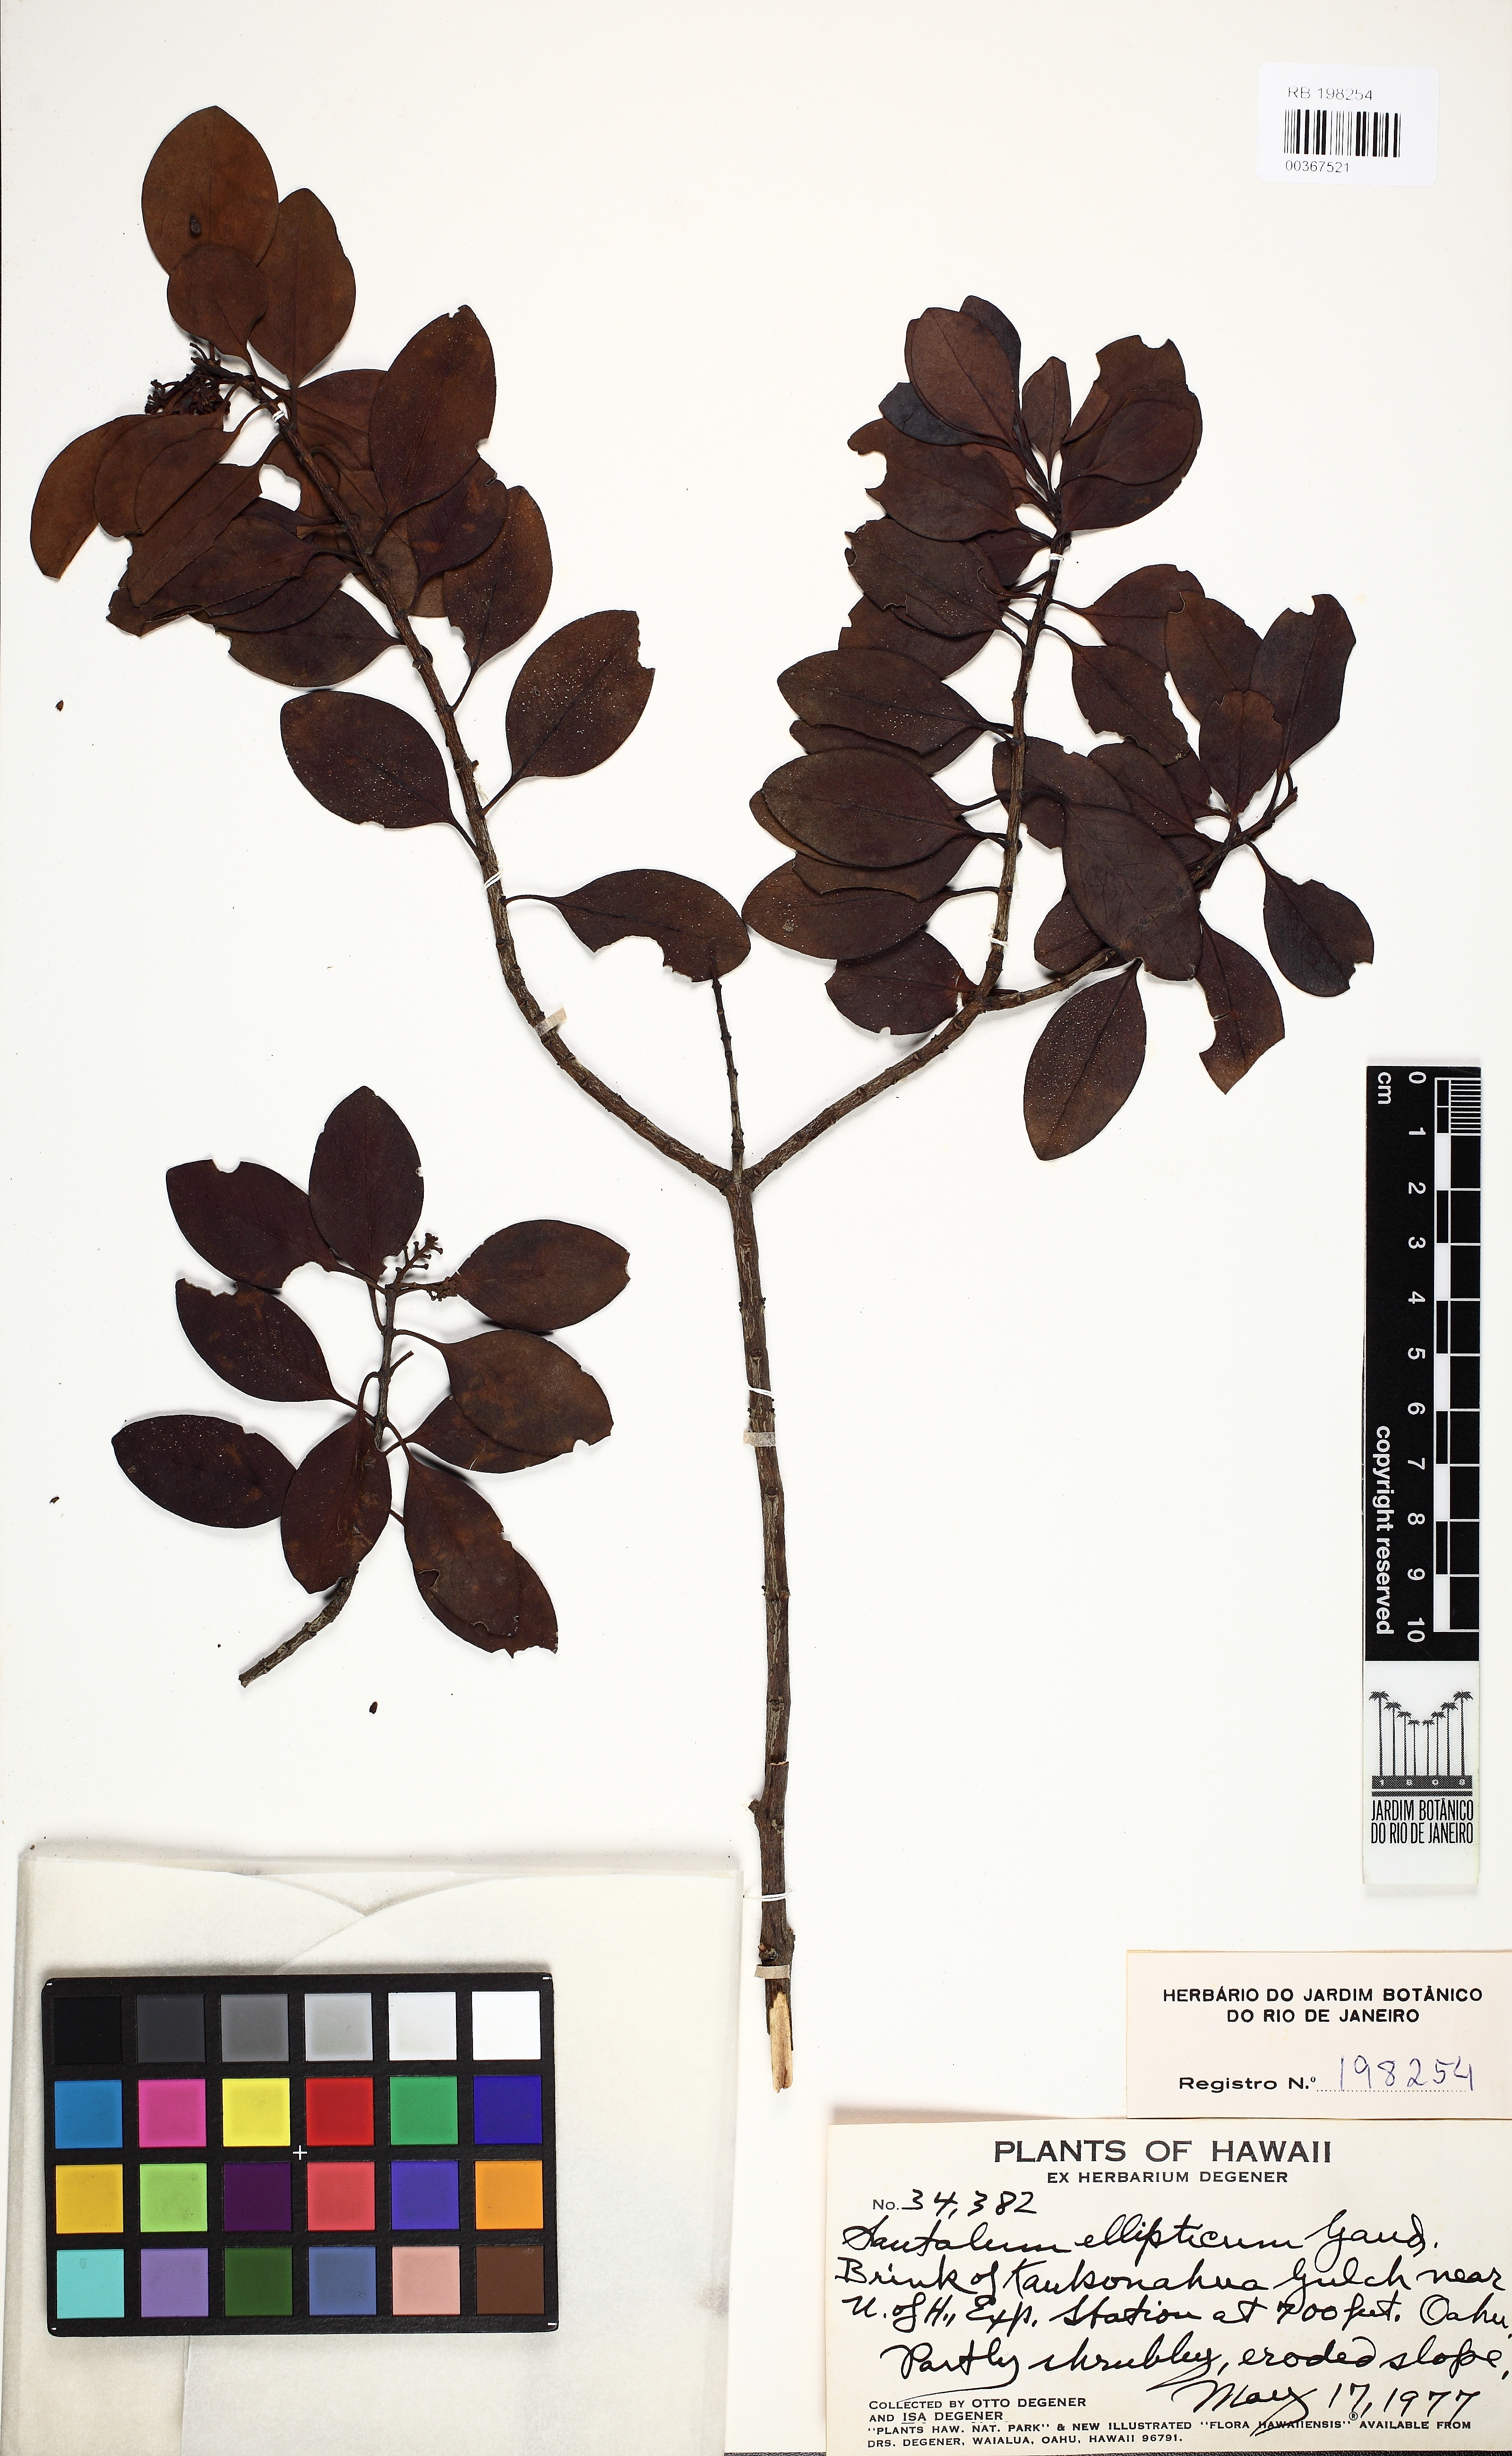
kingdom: Plantae
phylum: Tracheophyta
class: Magnoliopsida
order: Santalales
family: Santalaceae
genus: Santalum
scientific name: Santalum ellipticum
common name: Coast sandalwood
